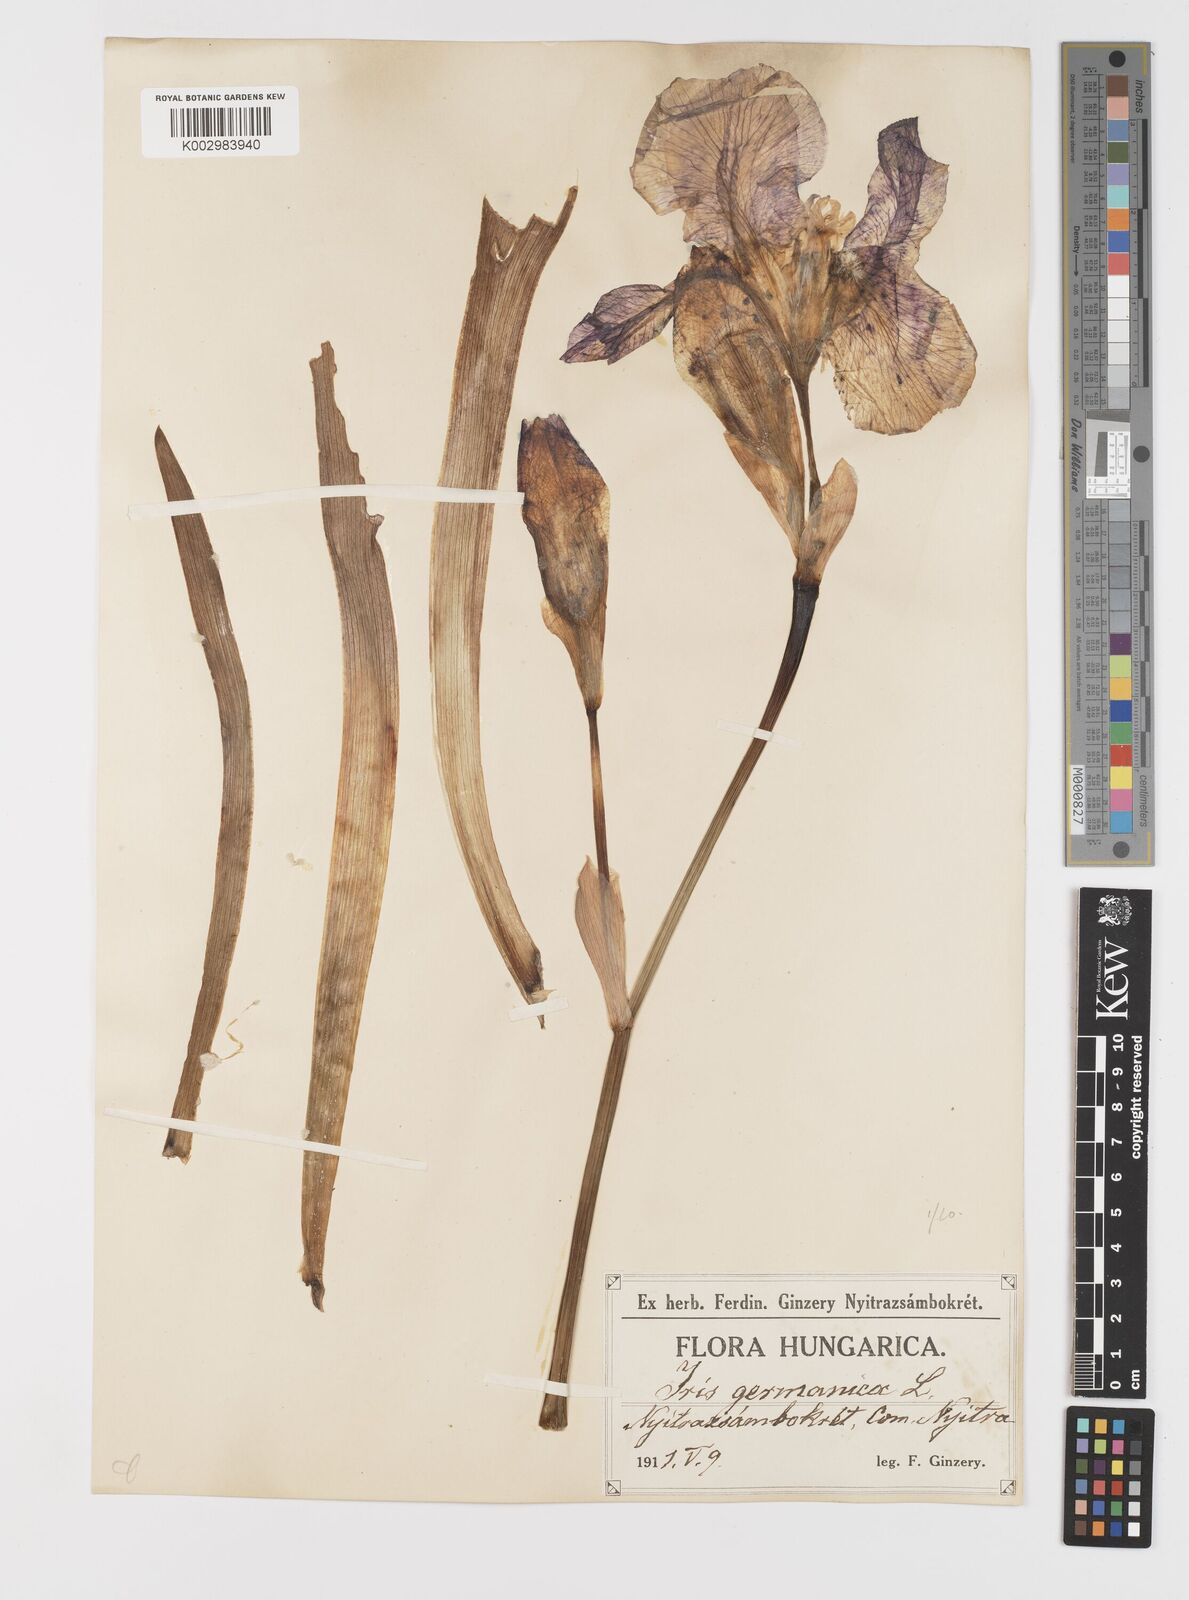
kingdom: Plantae
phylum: Tracheophyta
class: Liliopsida
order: Asparagales
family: Iridaceae
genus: Iris
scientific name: Iris germanica
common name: German iris
